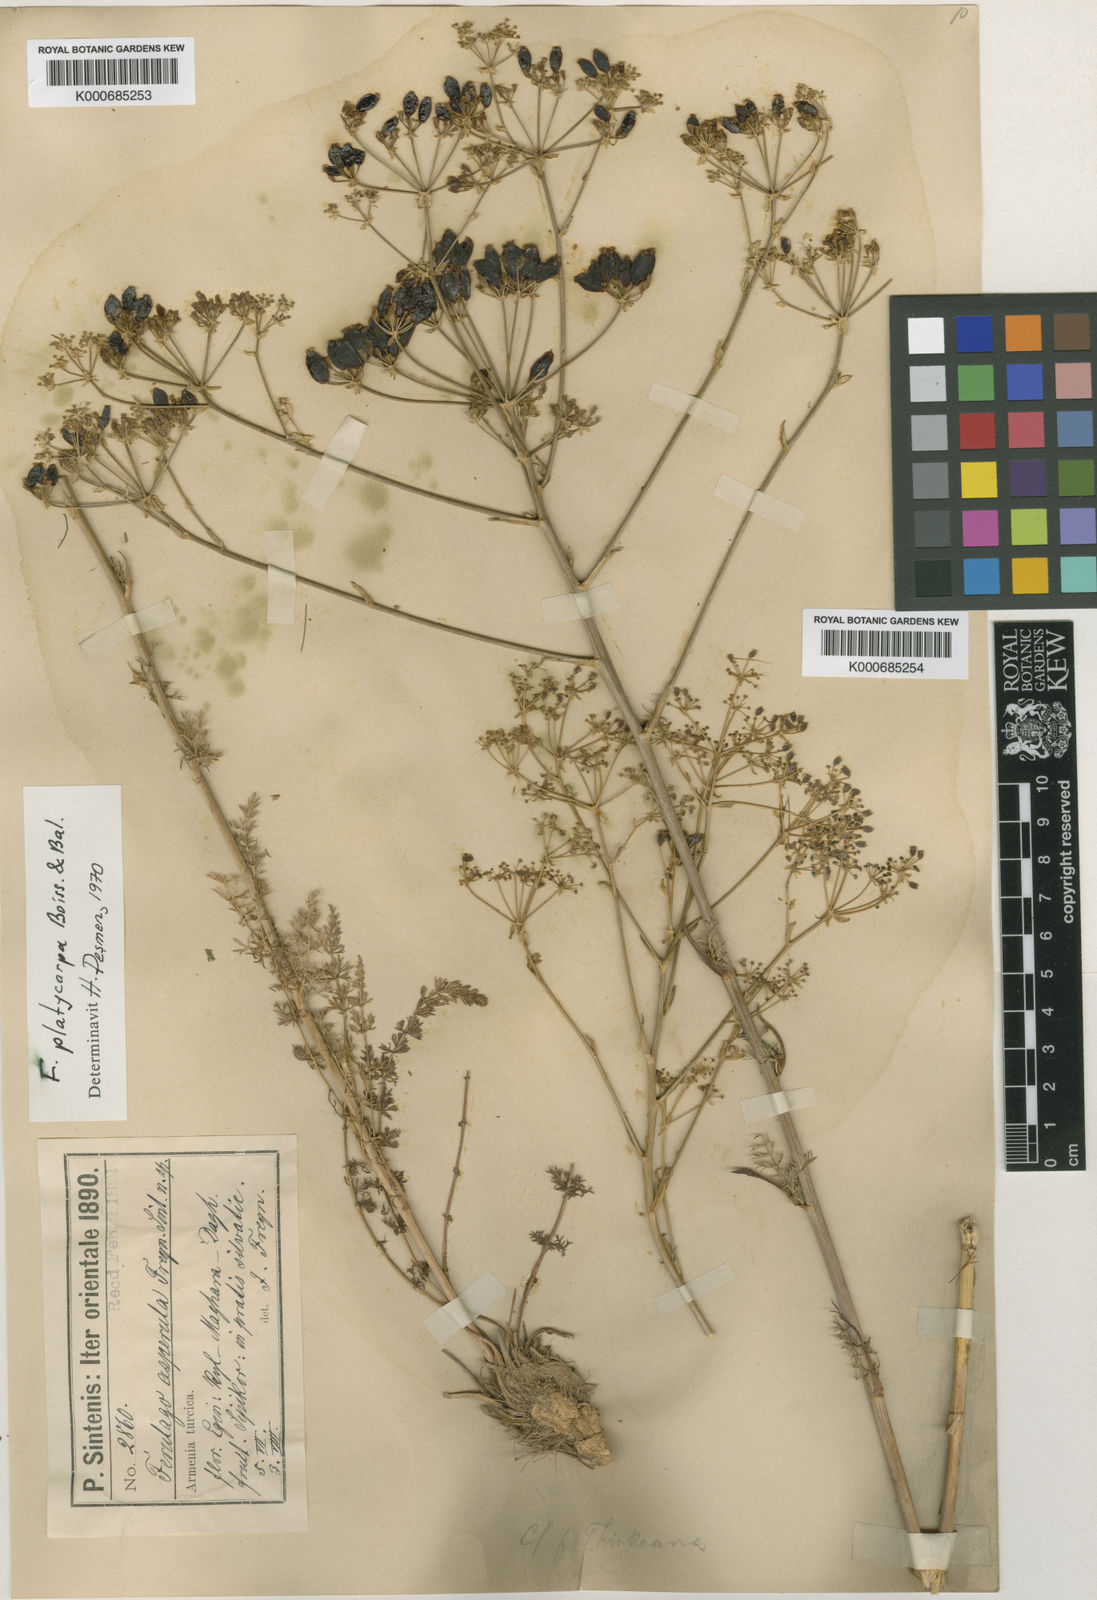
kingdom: Plantae
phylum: Tracheophyta
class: Magnoliopsida
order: Apiales
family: Apiaceae
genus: Ferulago
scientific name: Ferulago platycarpa
